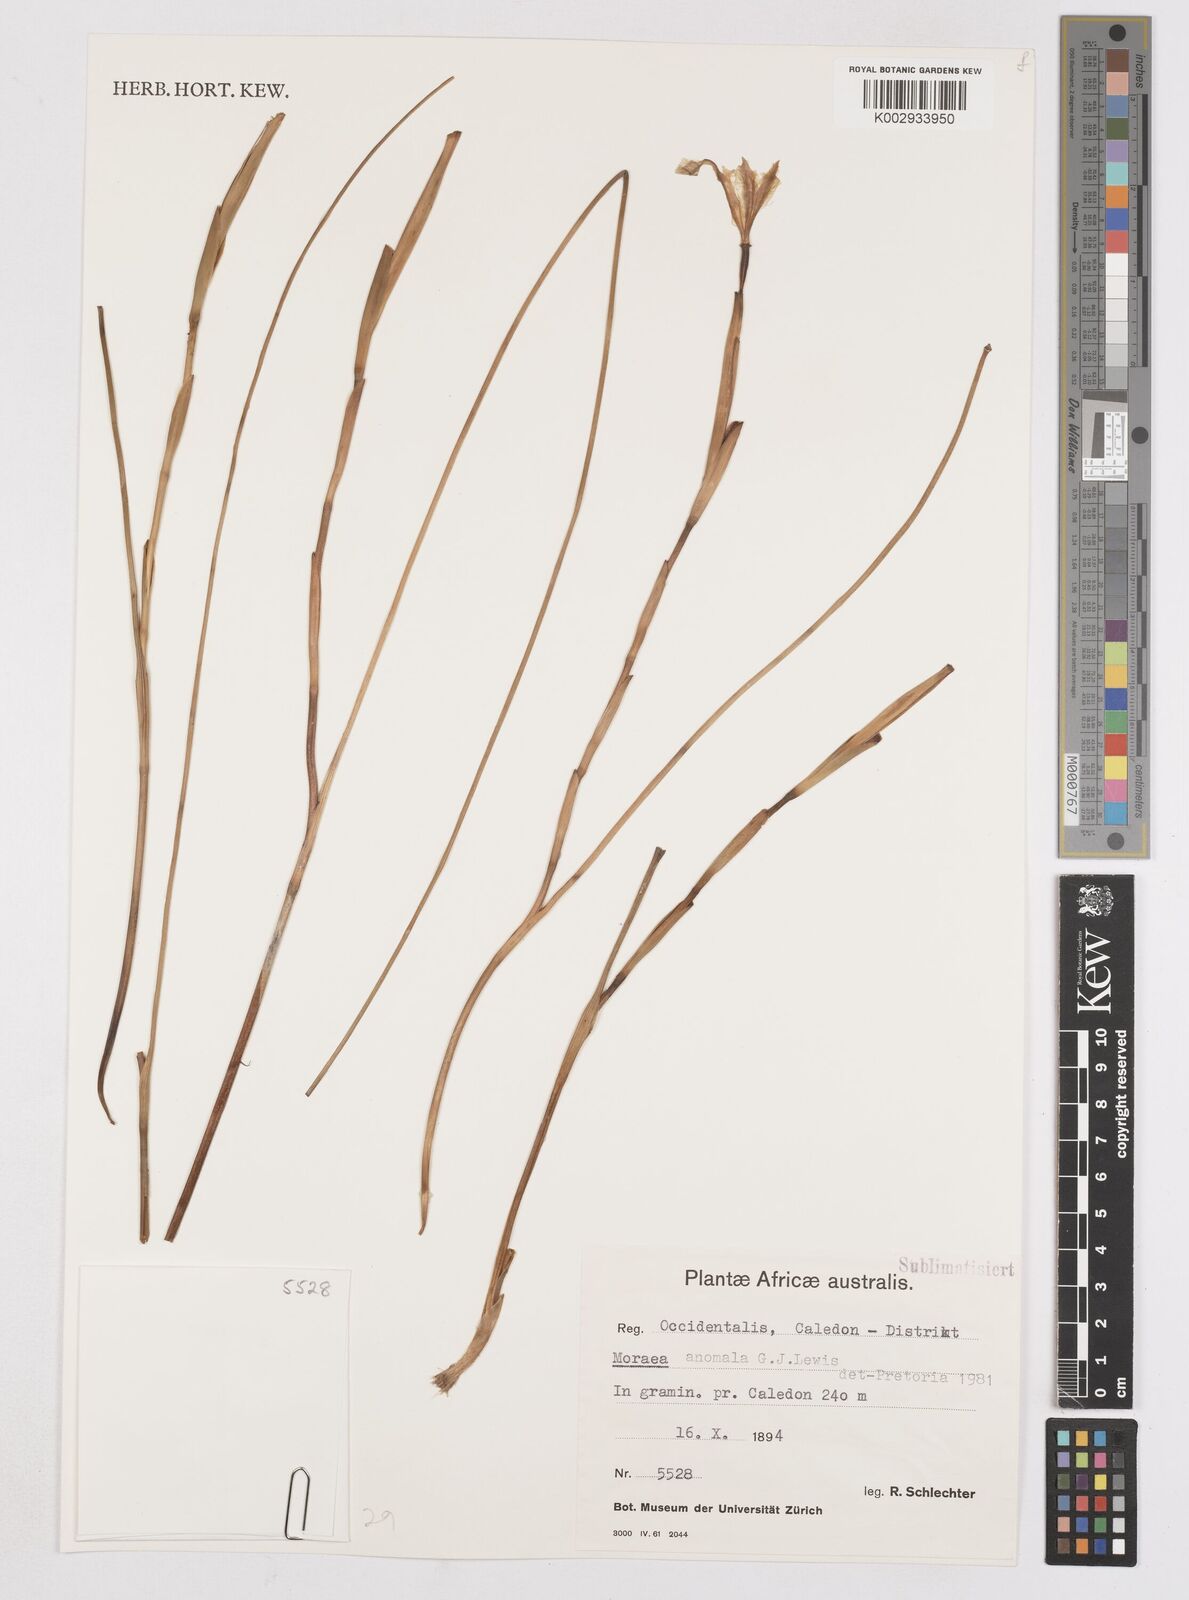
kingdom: Plantae
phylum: Tracheophyta
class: Liliopsida
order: Asparagales
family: Iridaceae
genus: Moraea
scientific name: Moraea anomala
